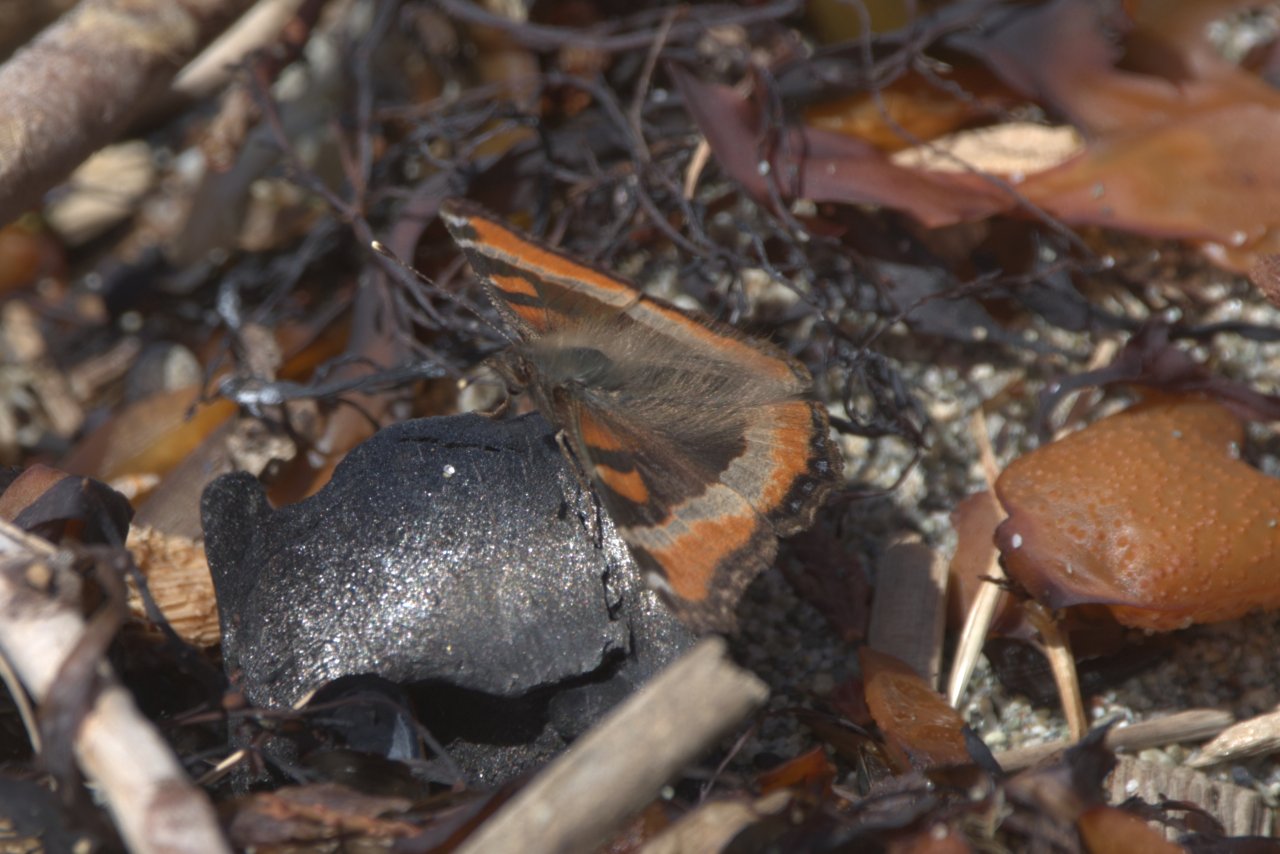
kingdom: Animalia
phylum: Arthropoda
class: Insecta
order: Lepidoptera
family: Nymphalidae
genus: Aglais
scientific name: Aglais milberti
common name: Milbert's Tortoiseshell
